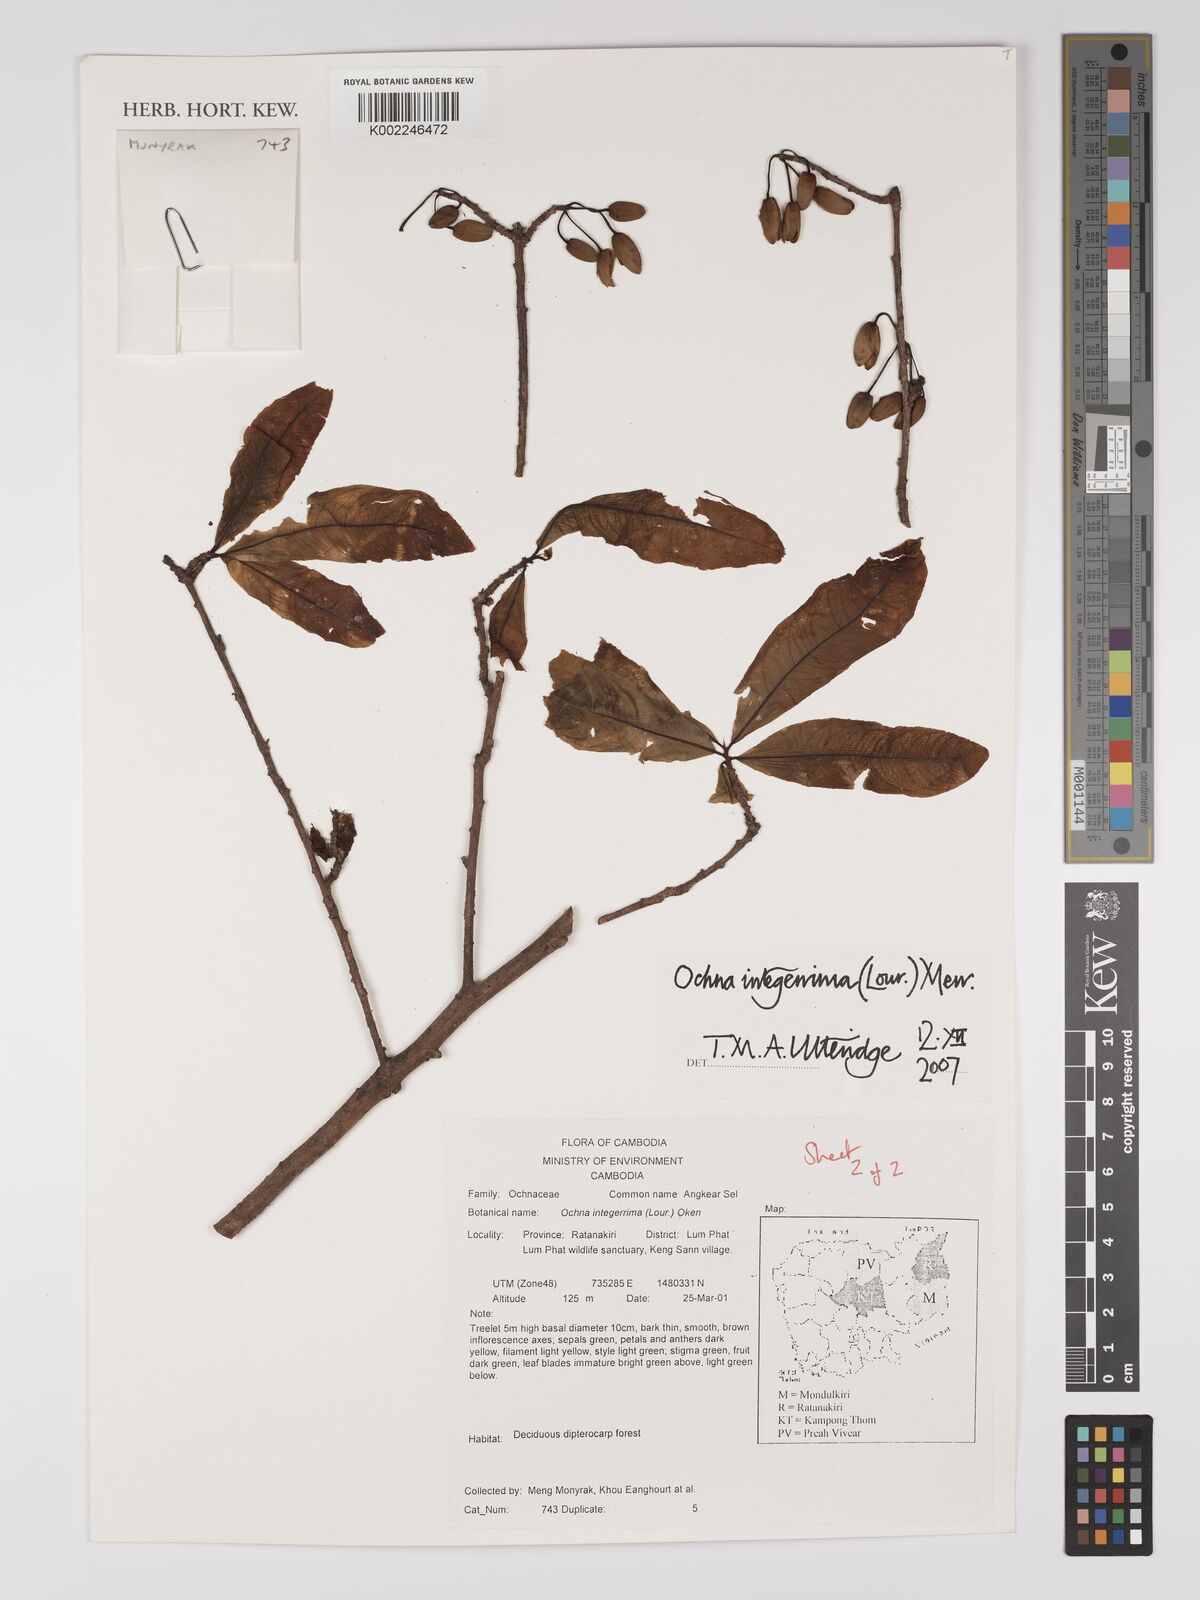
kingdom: Plantae
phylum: Tracheophyta
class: Magnoliopsida
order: Malpighiales
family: Ochnaceae
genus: Ochna
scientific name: Ochna integerrima
